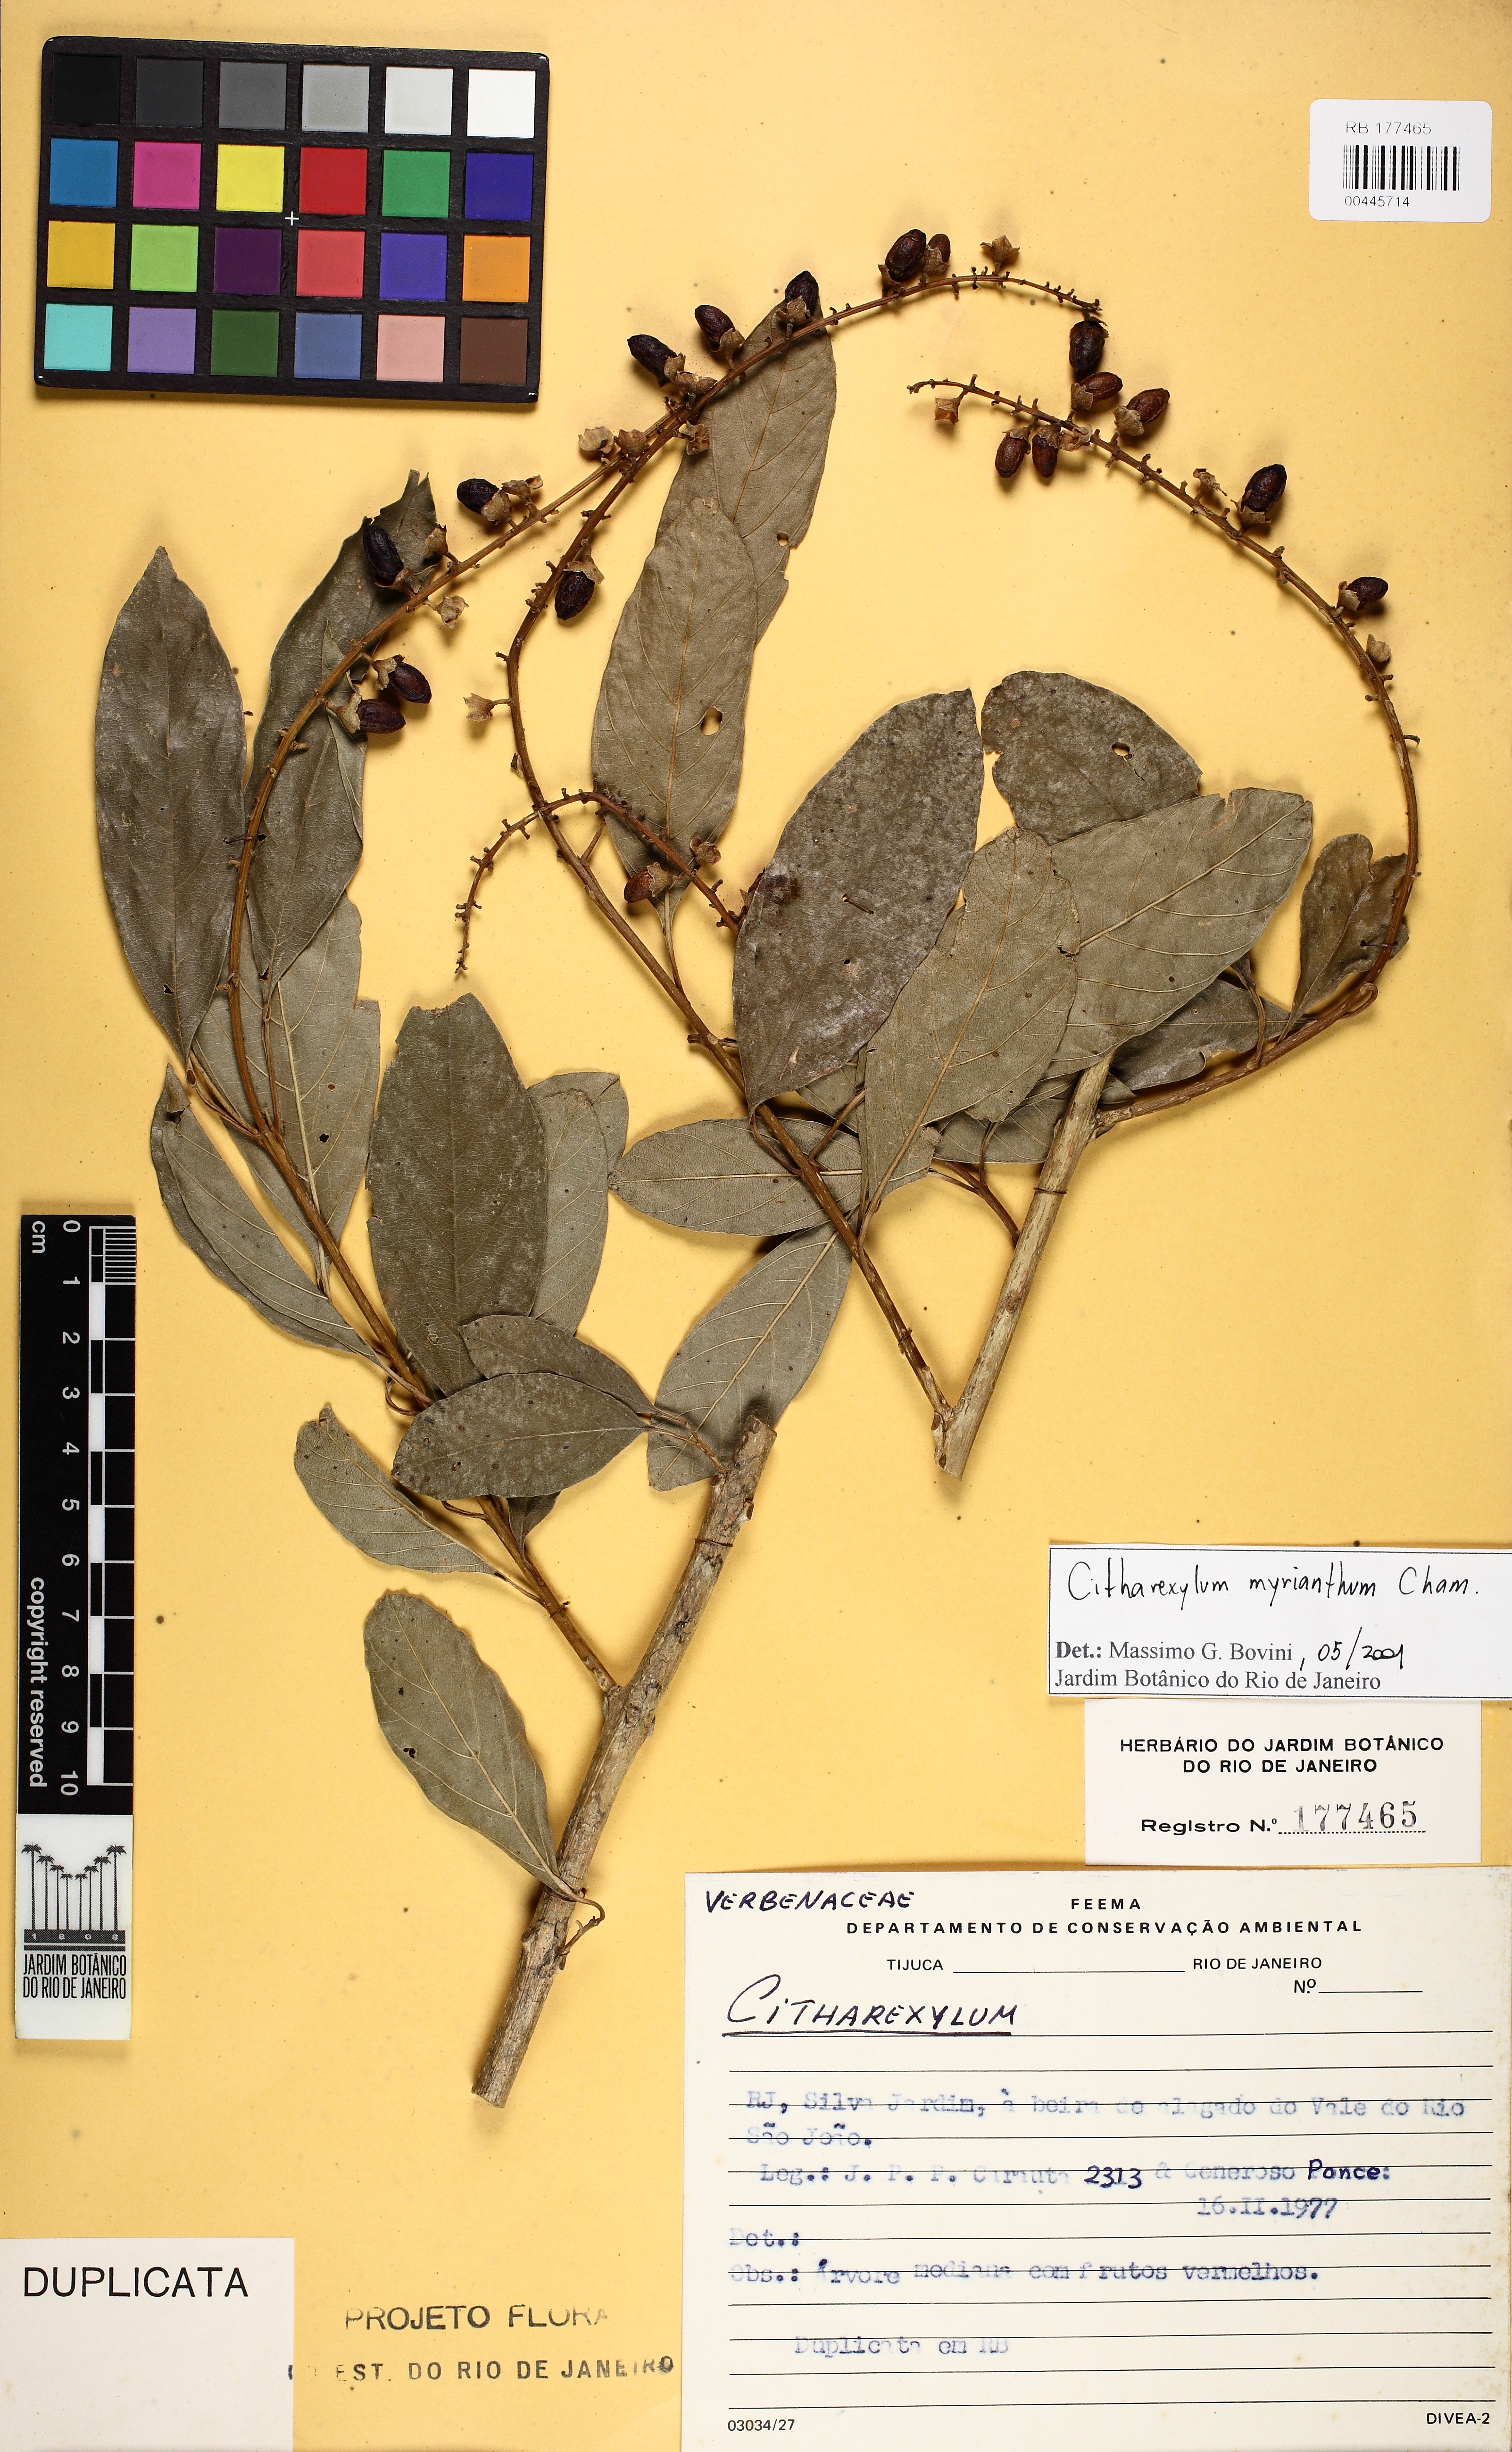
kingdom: Plantae
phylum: Tracheophyta
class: Magnoliopsida
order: Lamiales
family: Verbenaceae
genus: Citharexylum
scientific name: Citharexylum myrianthum
